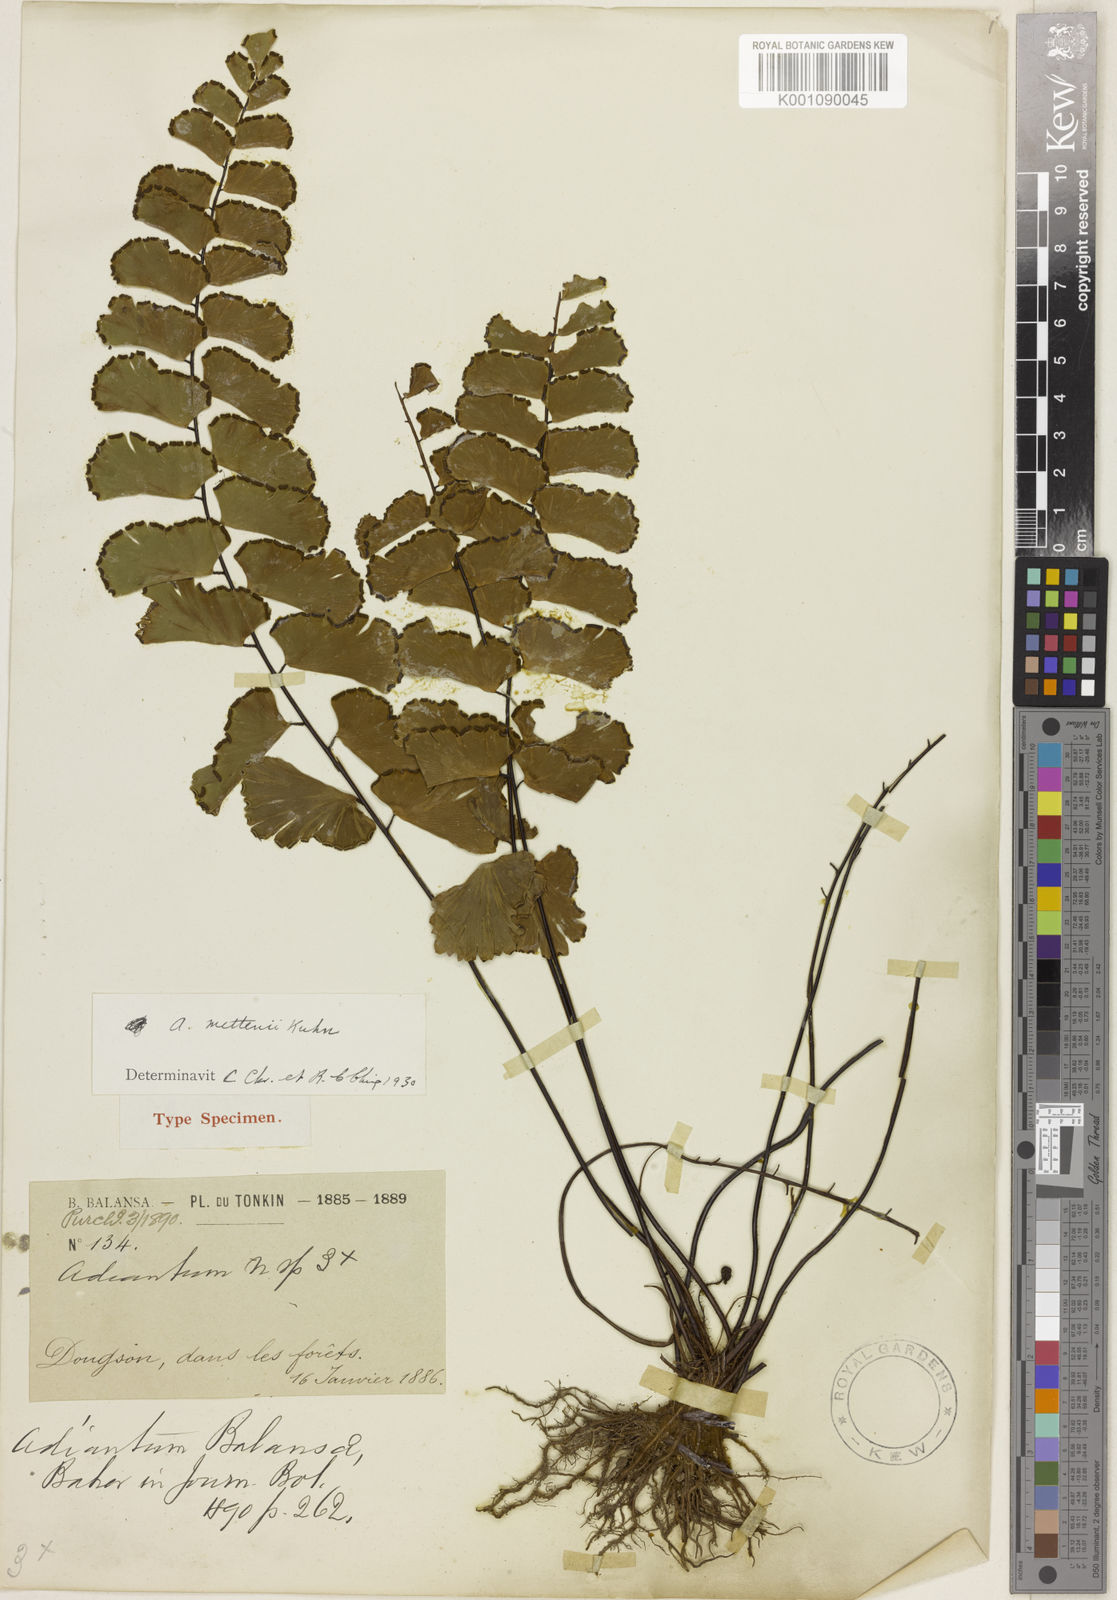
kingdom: Plantae
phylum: Tracheophyta
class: Polypodiopsida
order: Polypodiales
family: Pteridaceae
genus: Adiantum
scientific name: Adiantum soboliferum
